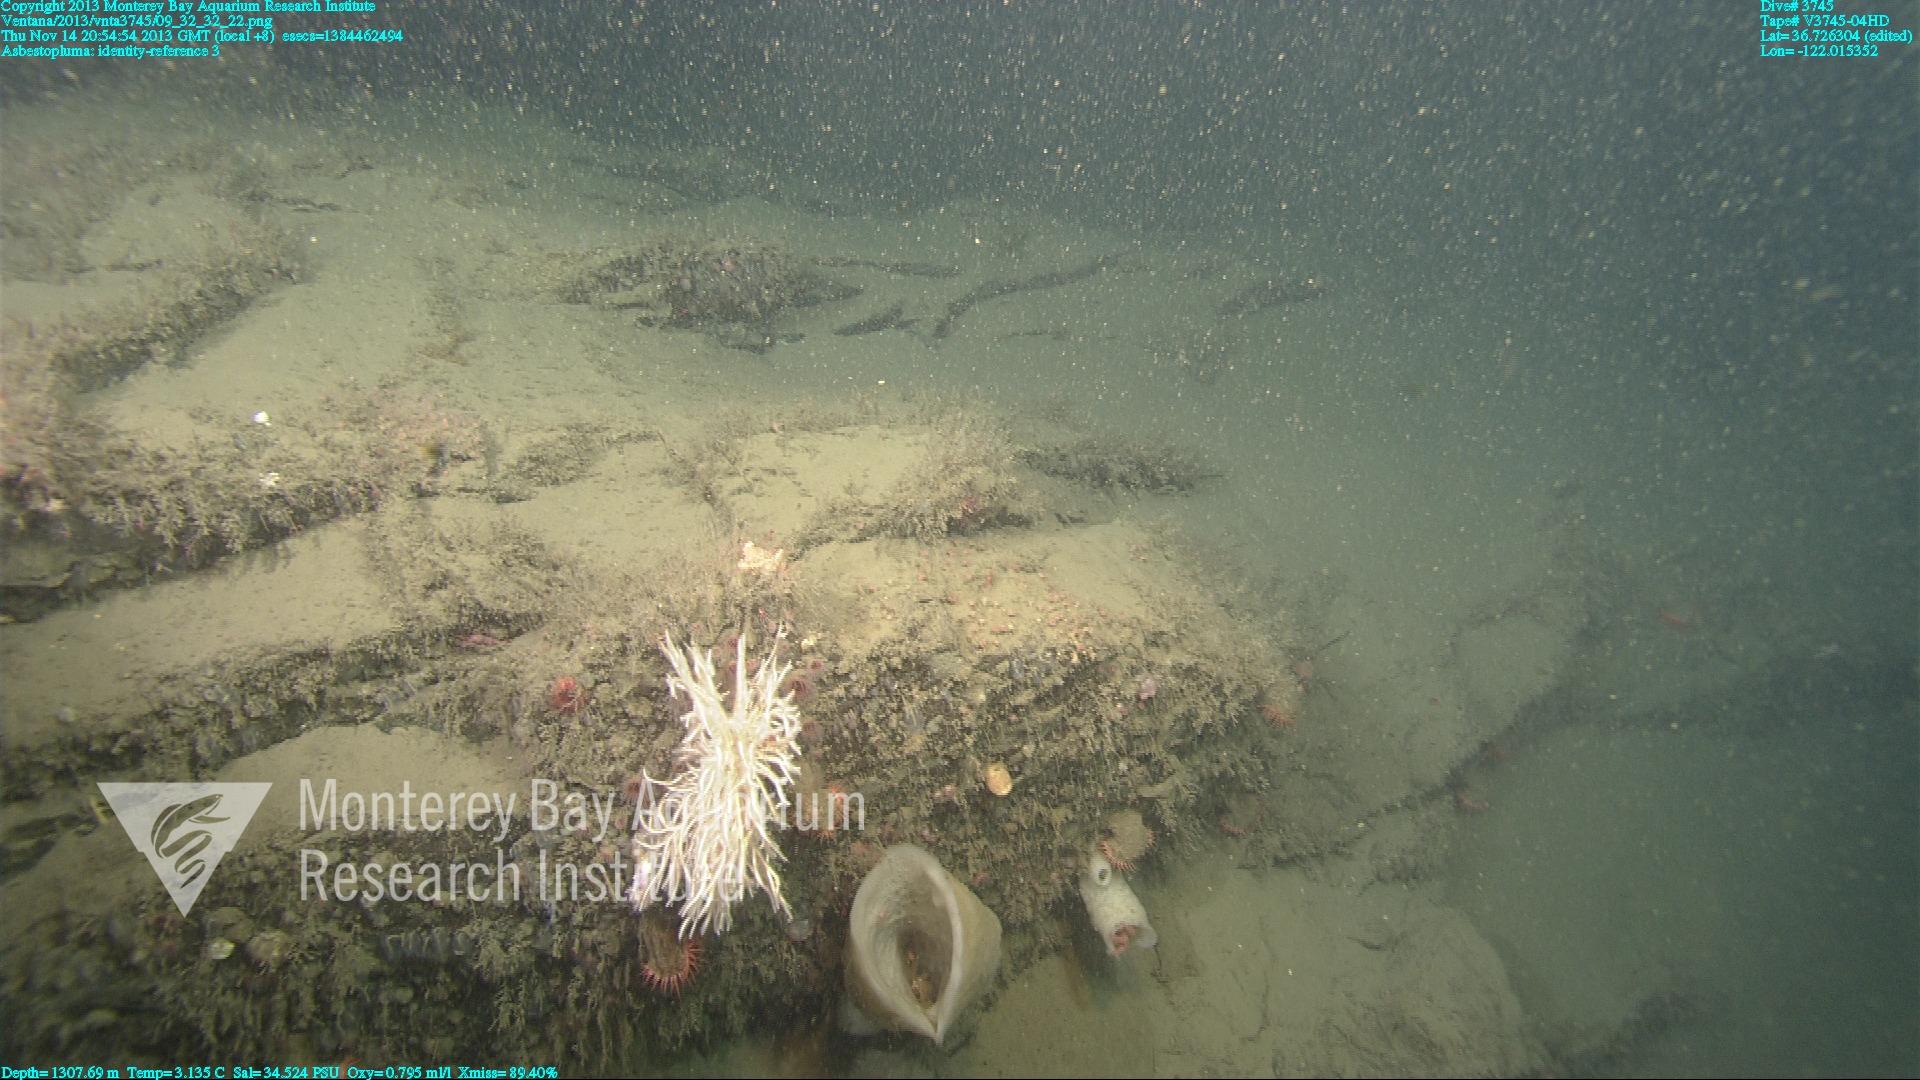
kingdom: Animalia
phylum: Porifera
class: Demospongiae
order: Poecilosclerida
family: Cladorhizidae
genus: Asbestopluma
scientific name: Asbestopluma
